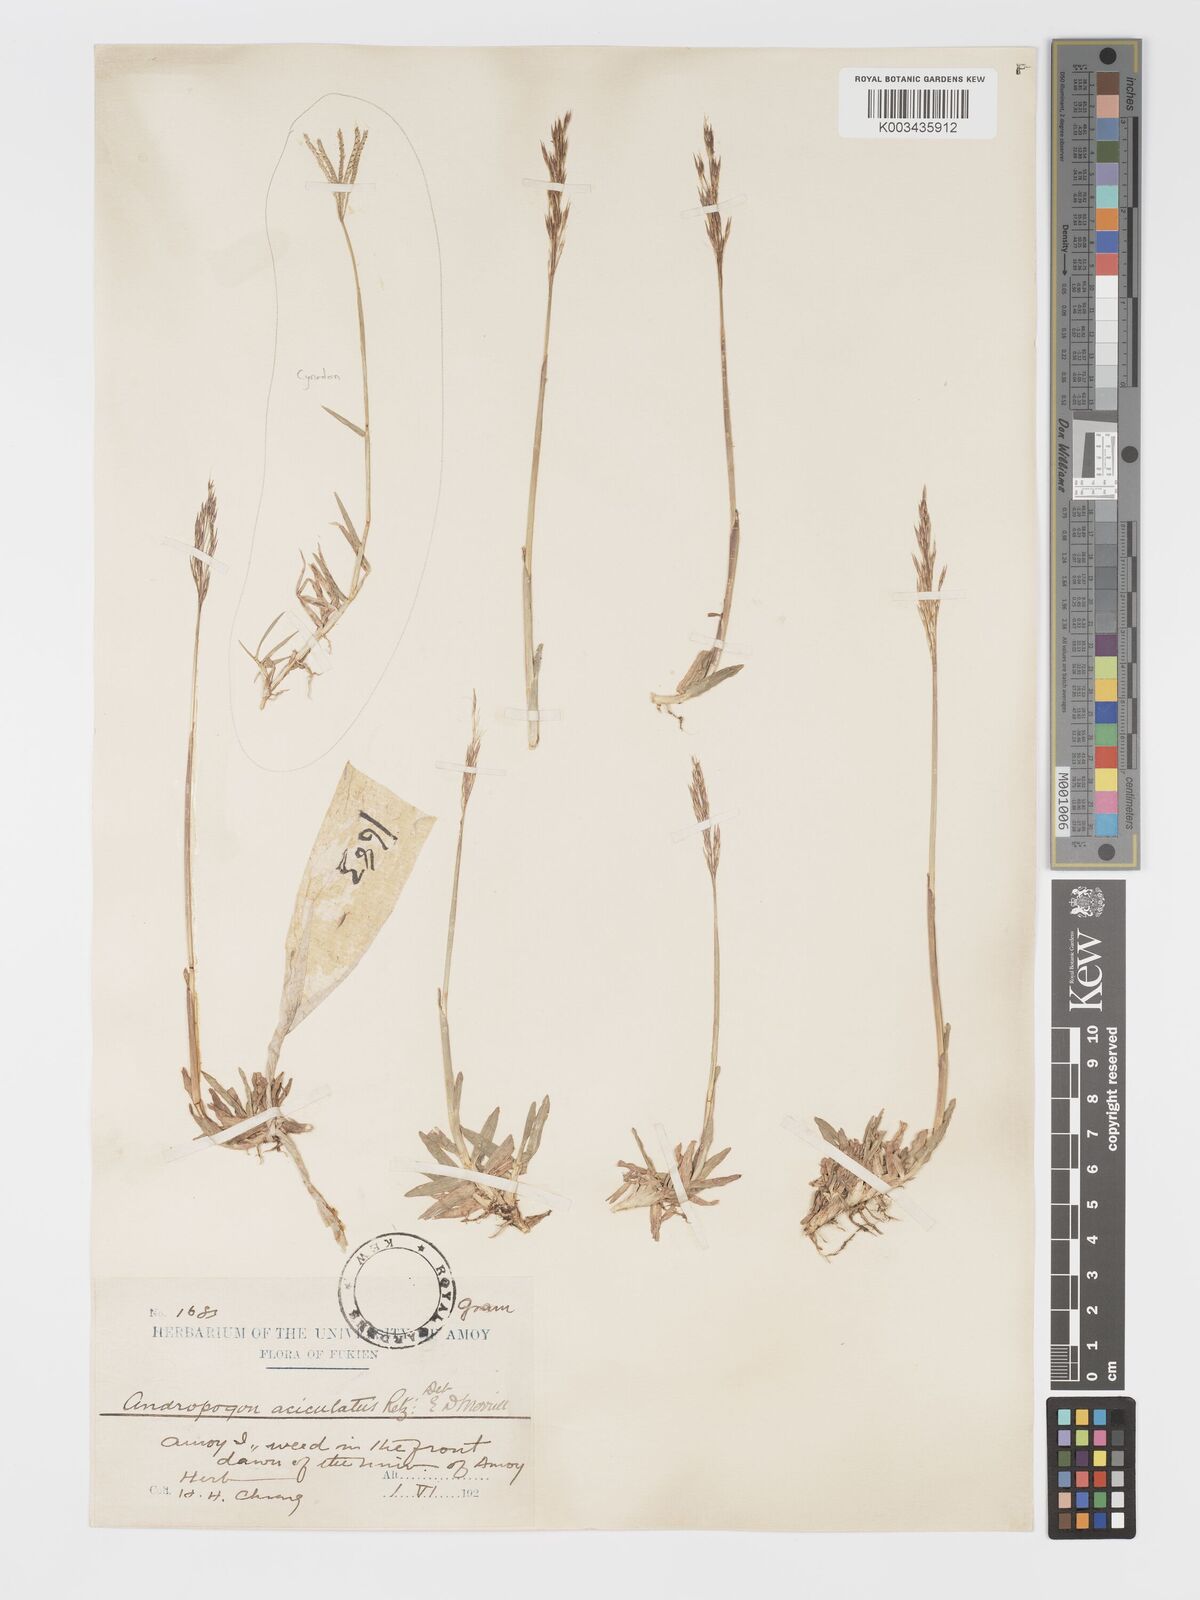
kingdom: Plantae
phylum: Tracheophyta
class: Liliopsida
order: Poales
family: Poaceae
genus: Chrysopogon
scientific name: Chrysopogon aciculatus
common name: Pilipiliula
